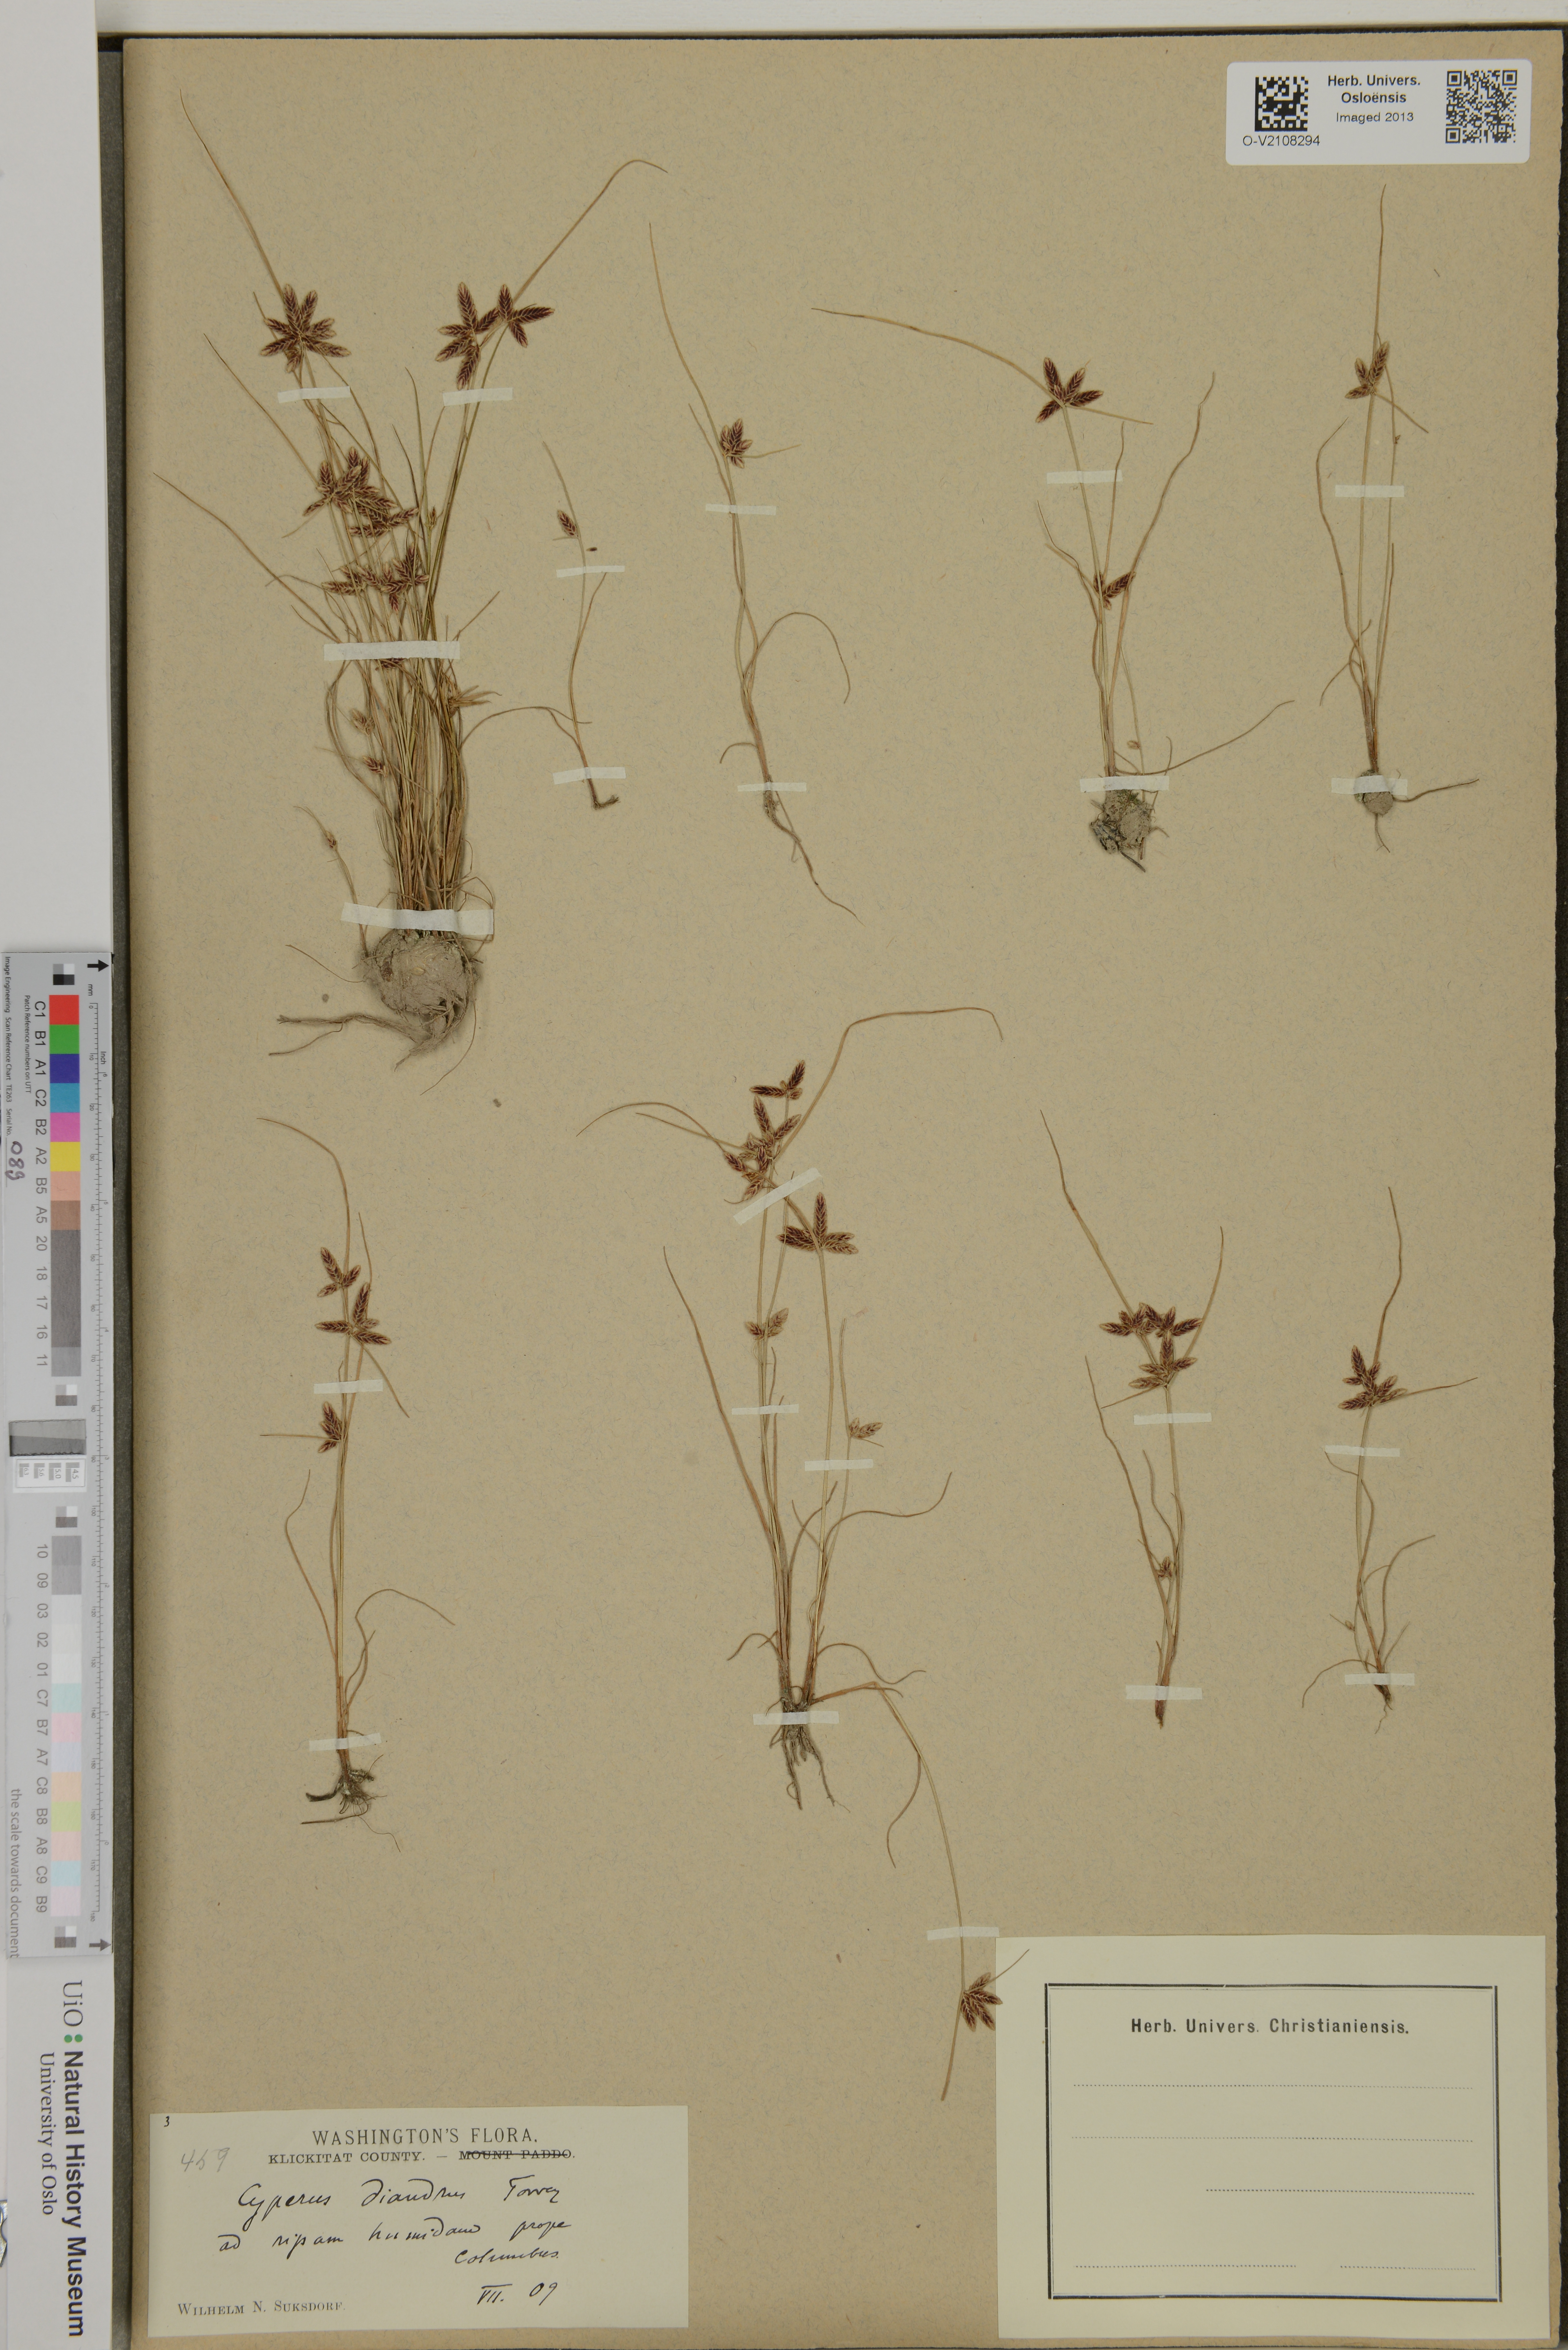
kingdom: Plantae
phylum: Tracheophyta
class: Liliopsida
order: Poales
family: Cyperaceae
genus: Cyperus
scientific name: Cyperus diandrus
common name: Low cyperus
